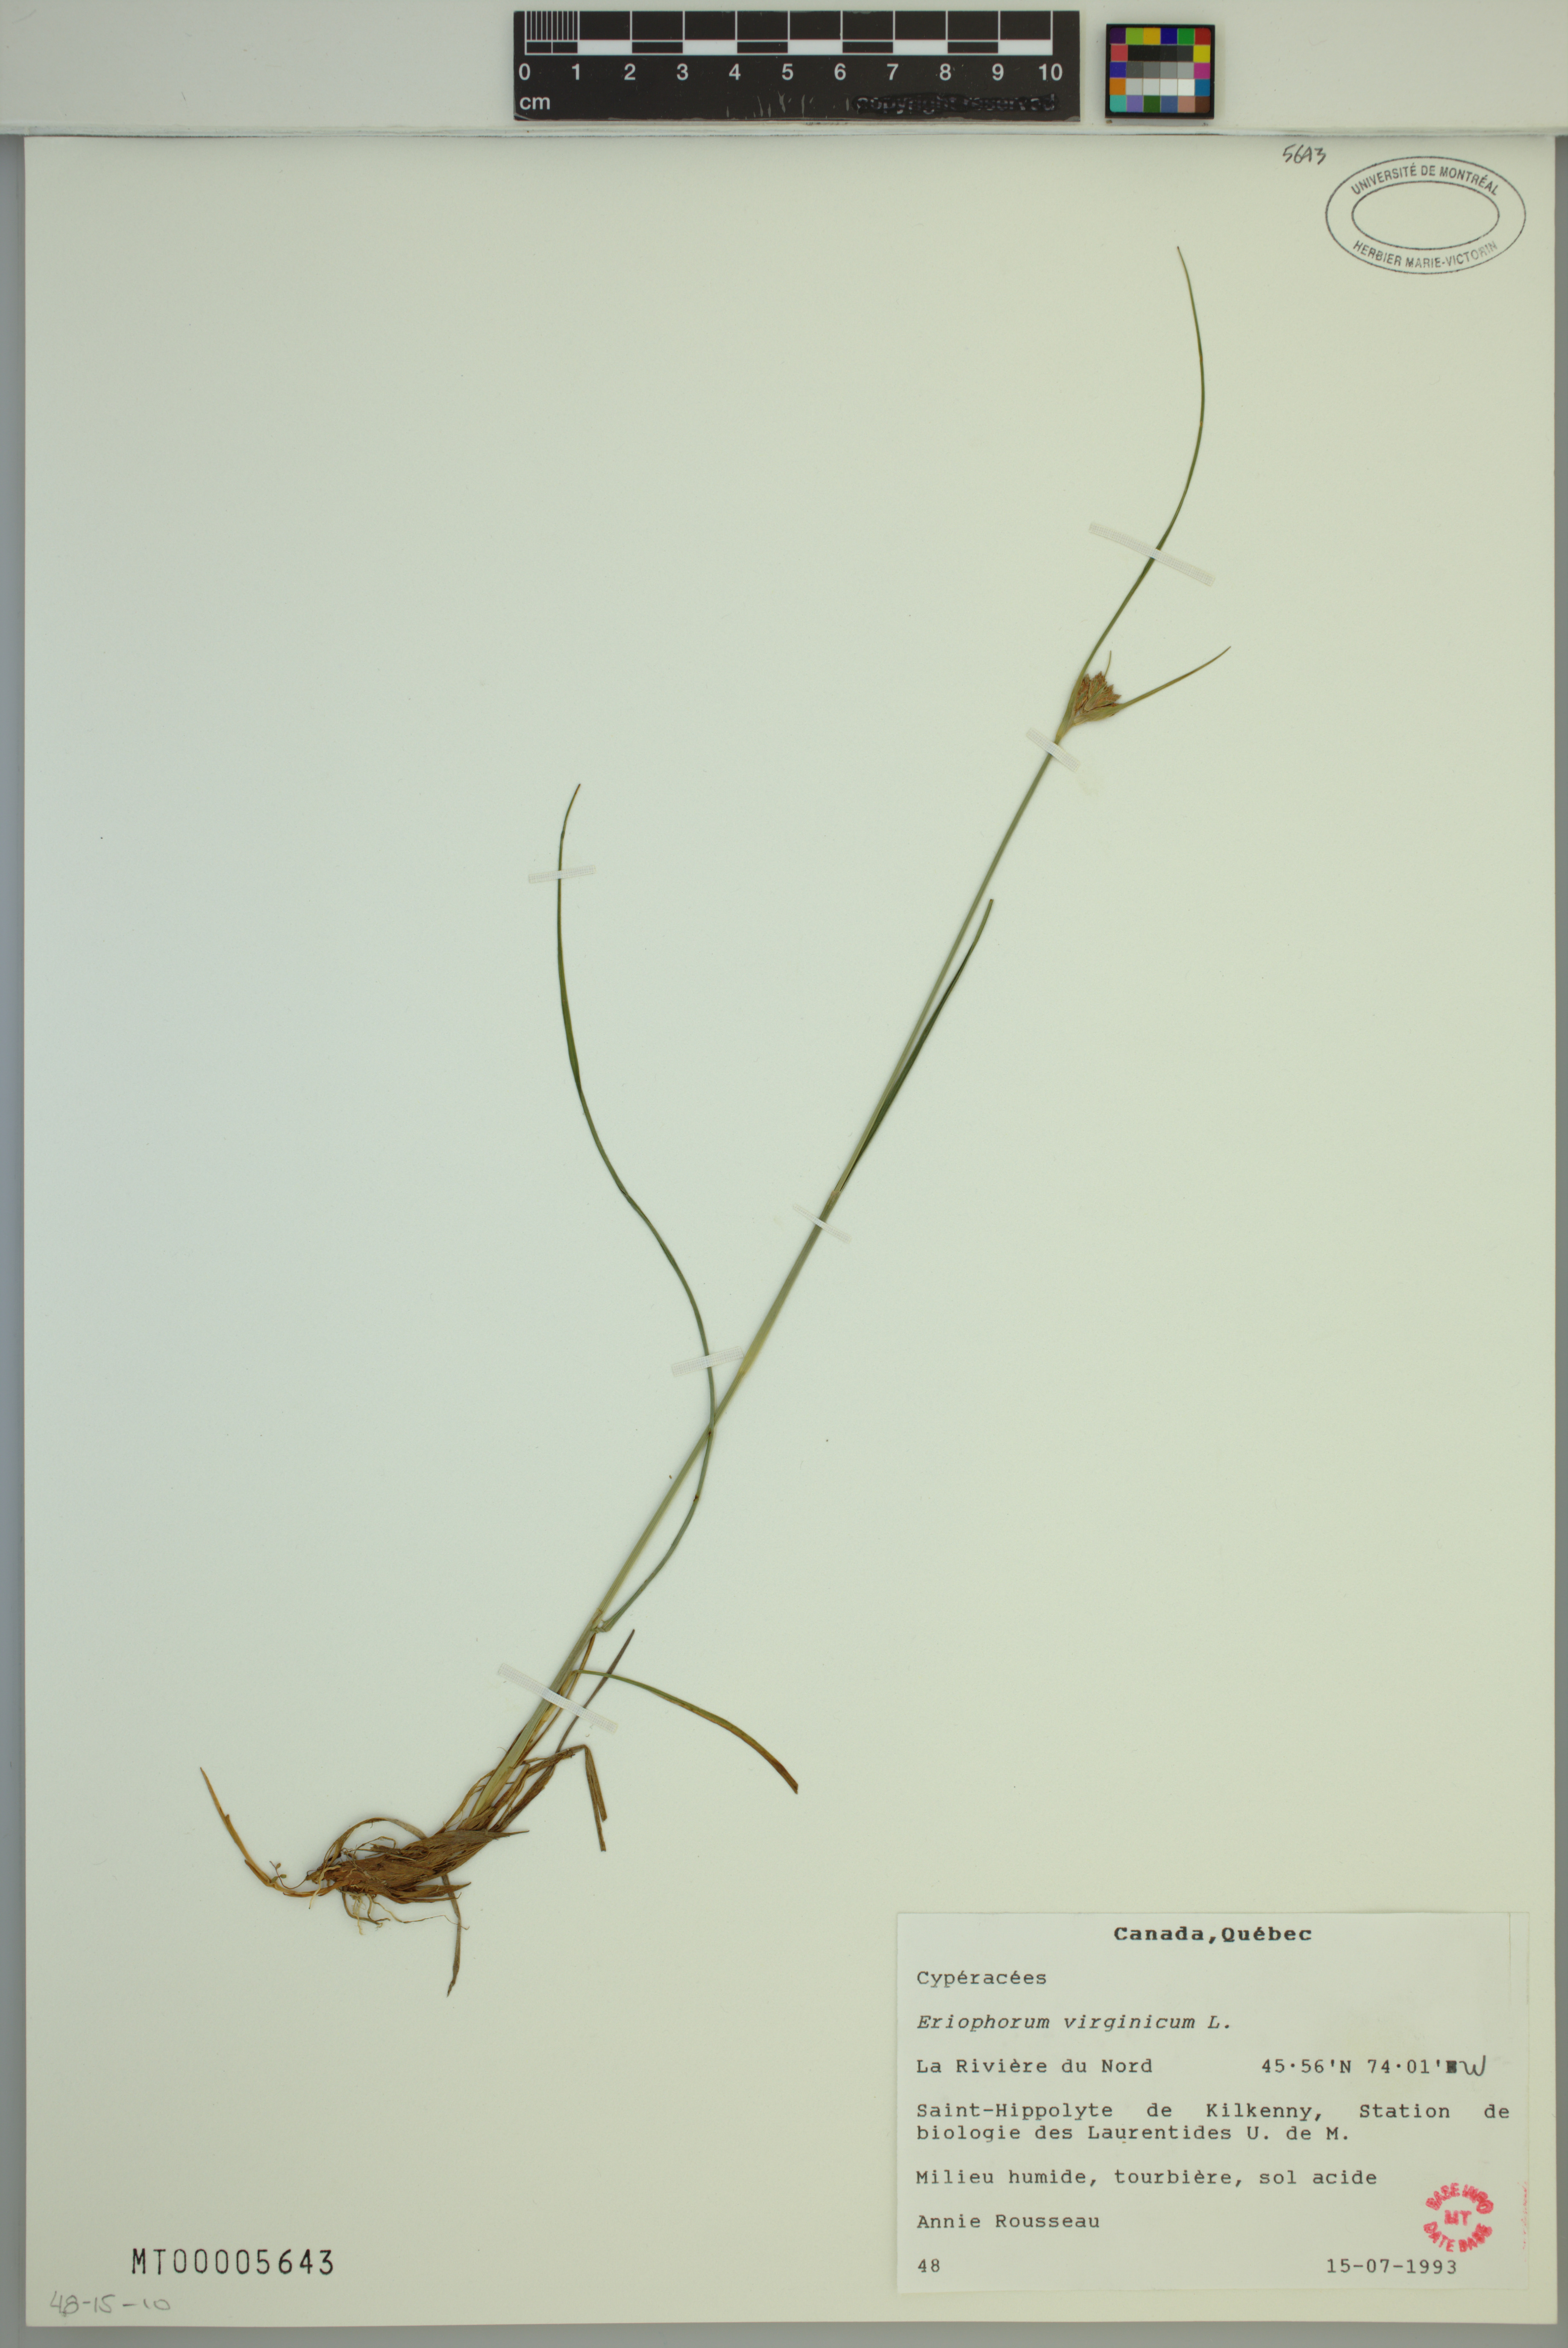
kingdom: Plantae
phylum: Tracheophyta
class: Liliopsida
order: Poales
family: Cyperaceae
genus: Eriophorum
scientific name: Eriophorum virginicum
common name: Tawny cottongrass
